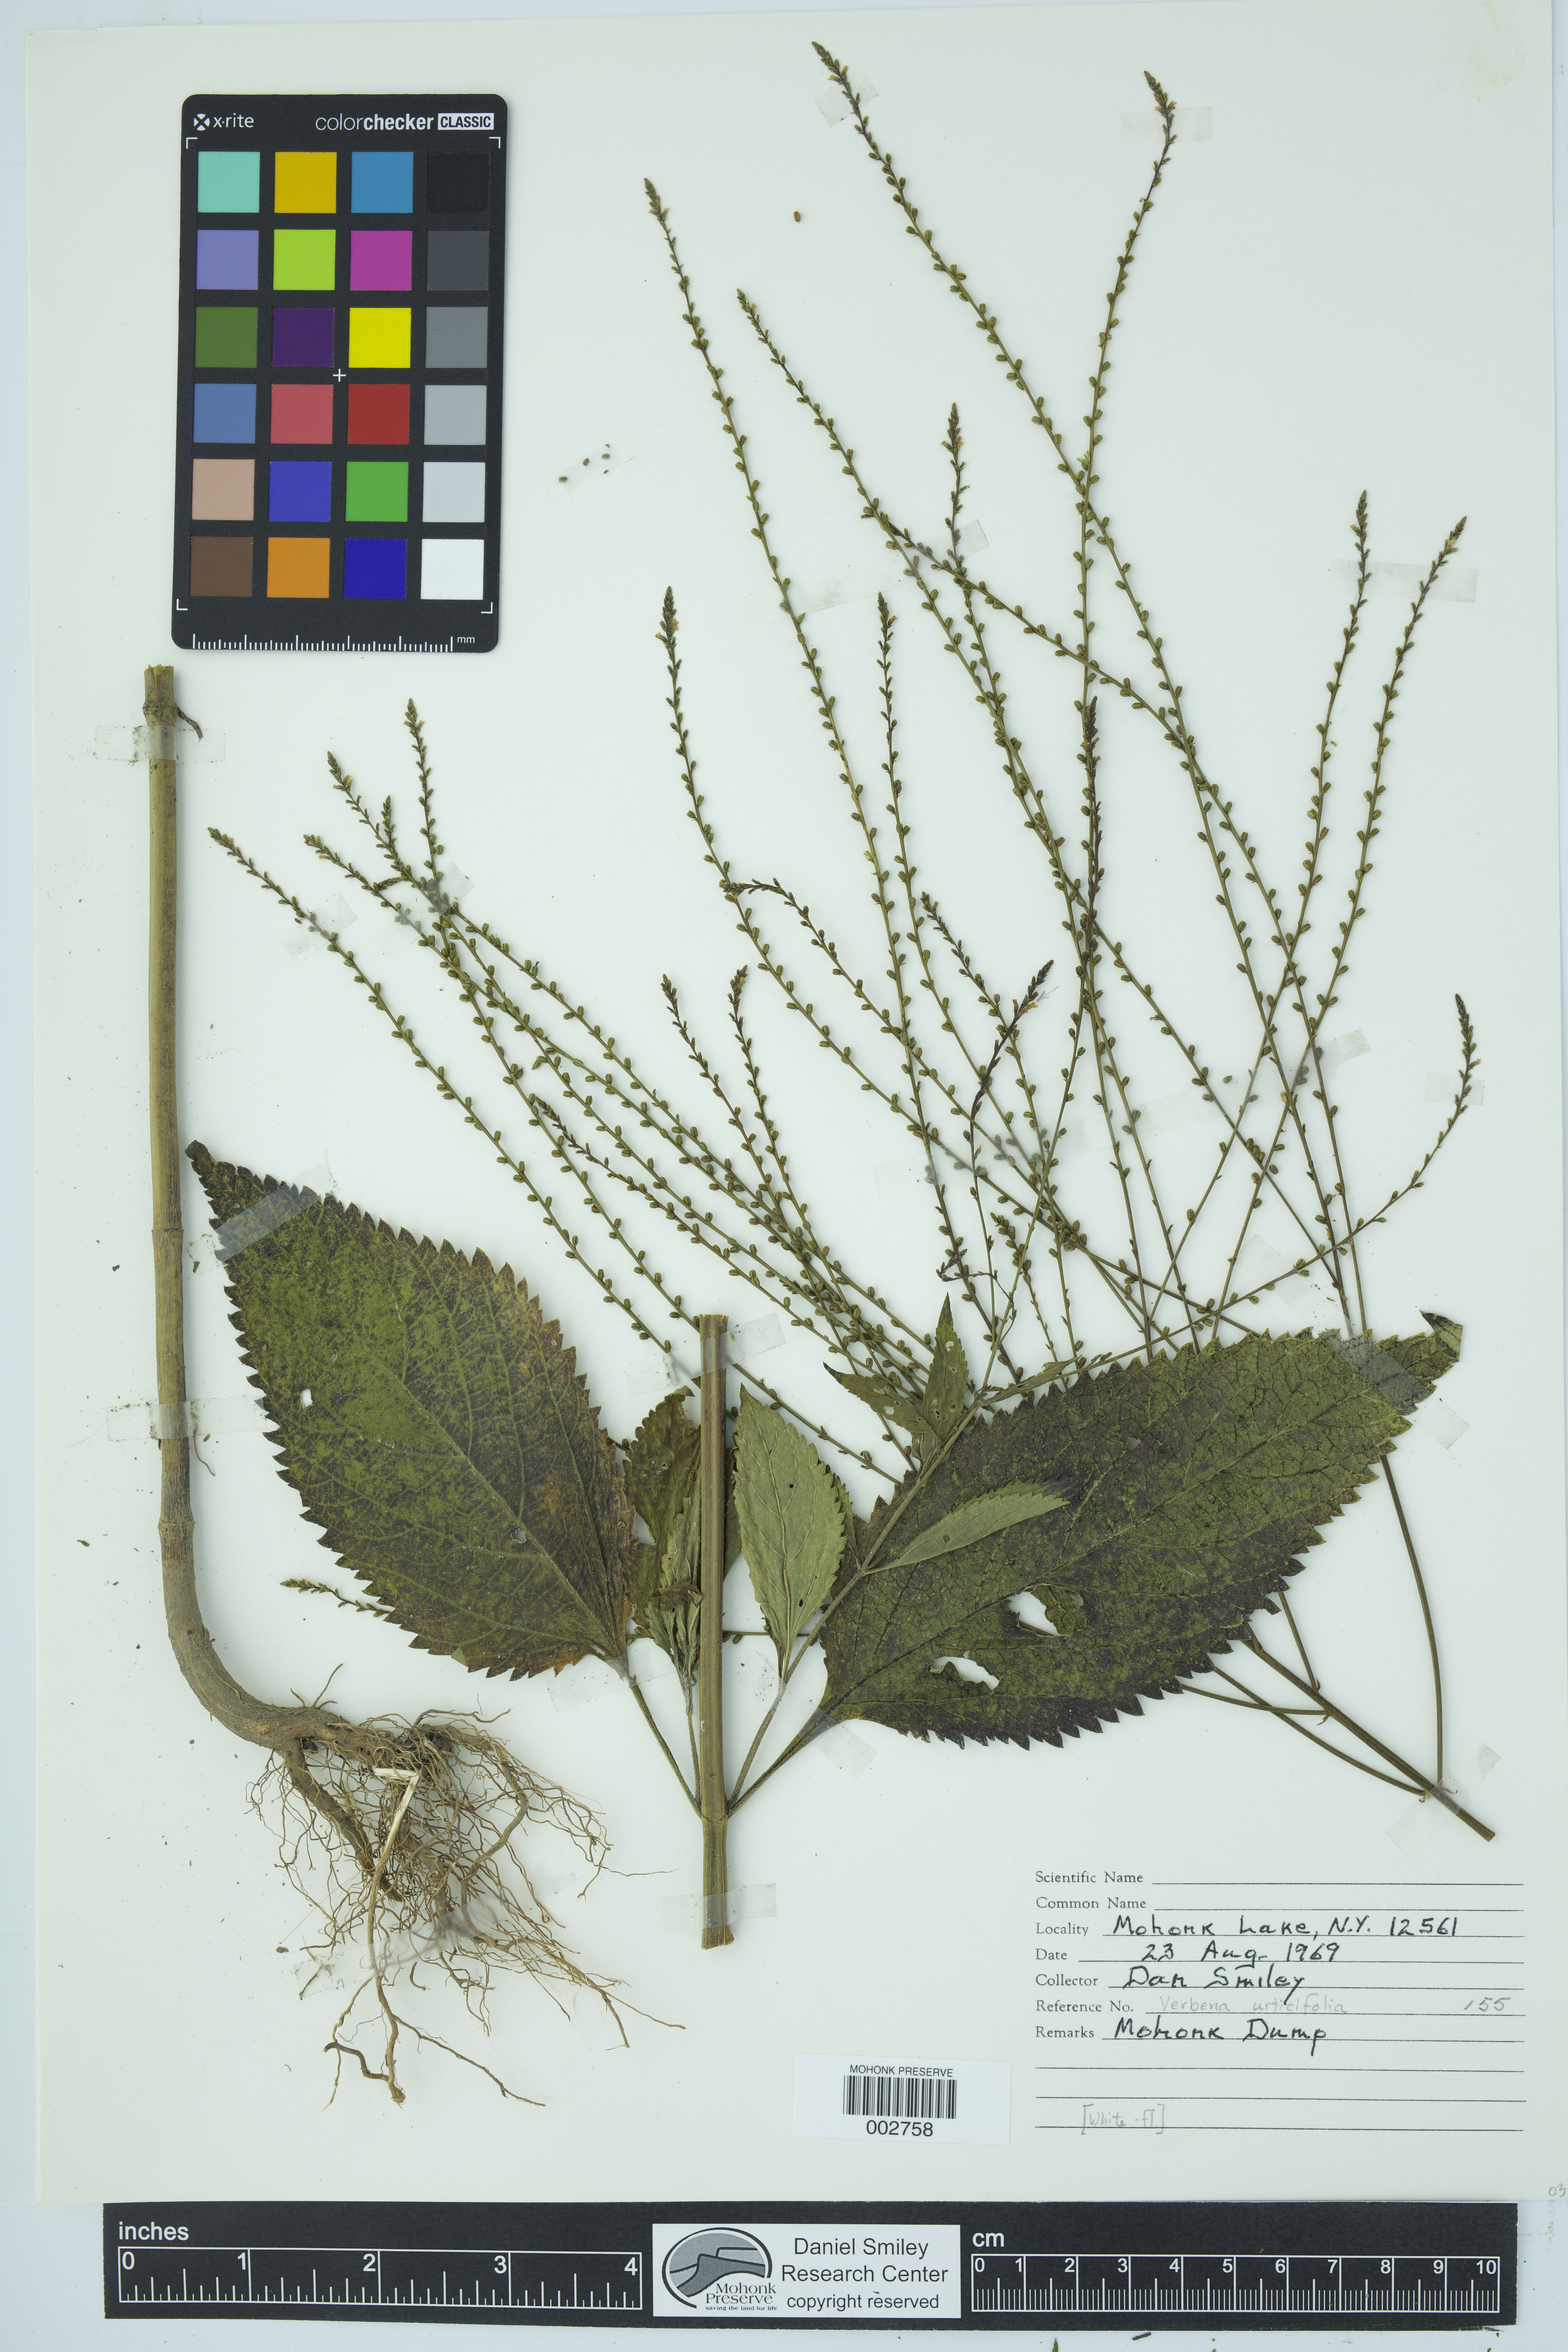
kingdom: Plantae
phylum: Tracheophyta
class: Magnoliopsida
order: Lamiales
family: Verbenaceae
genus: Verbena
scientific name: Verbena urticifolia
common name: Nettle-leaved vervain
